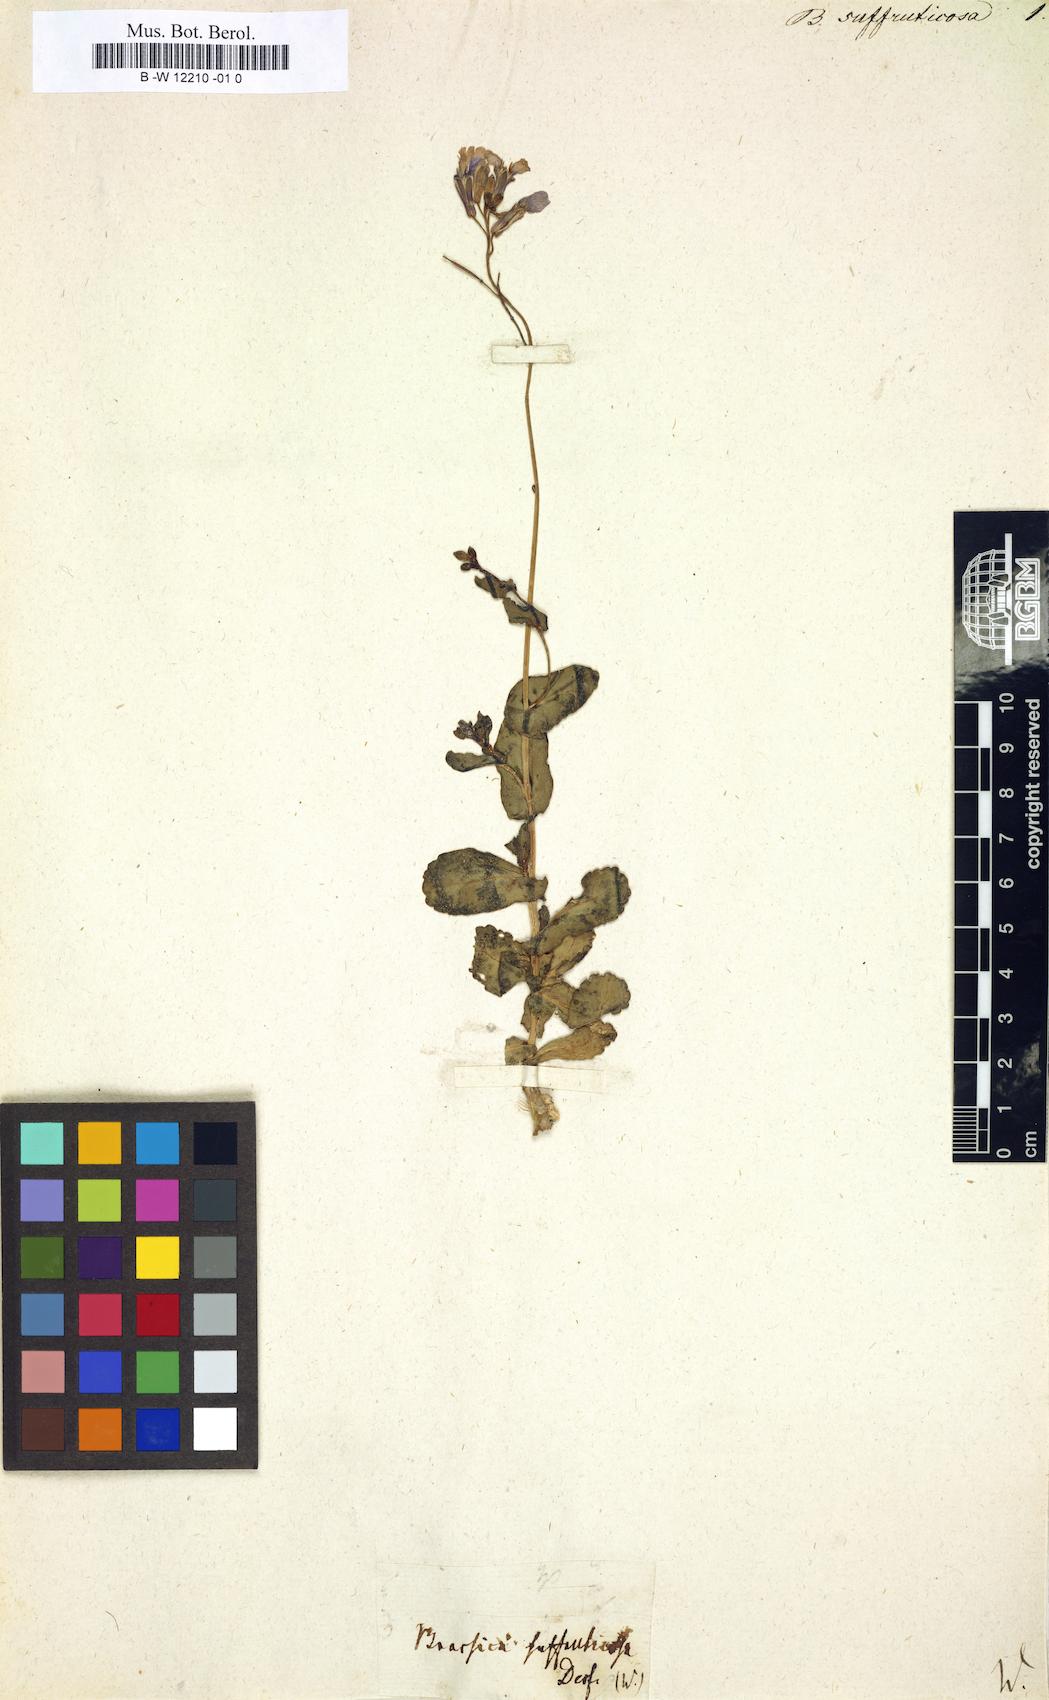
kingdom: Plantae
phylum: Tracheophyta
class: Magnoliopsida
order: Brassicales
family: Brassicaceae
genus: Moricandia
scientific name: Moricandia suffruticosa
